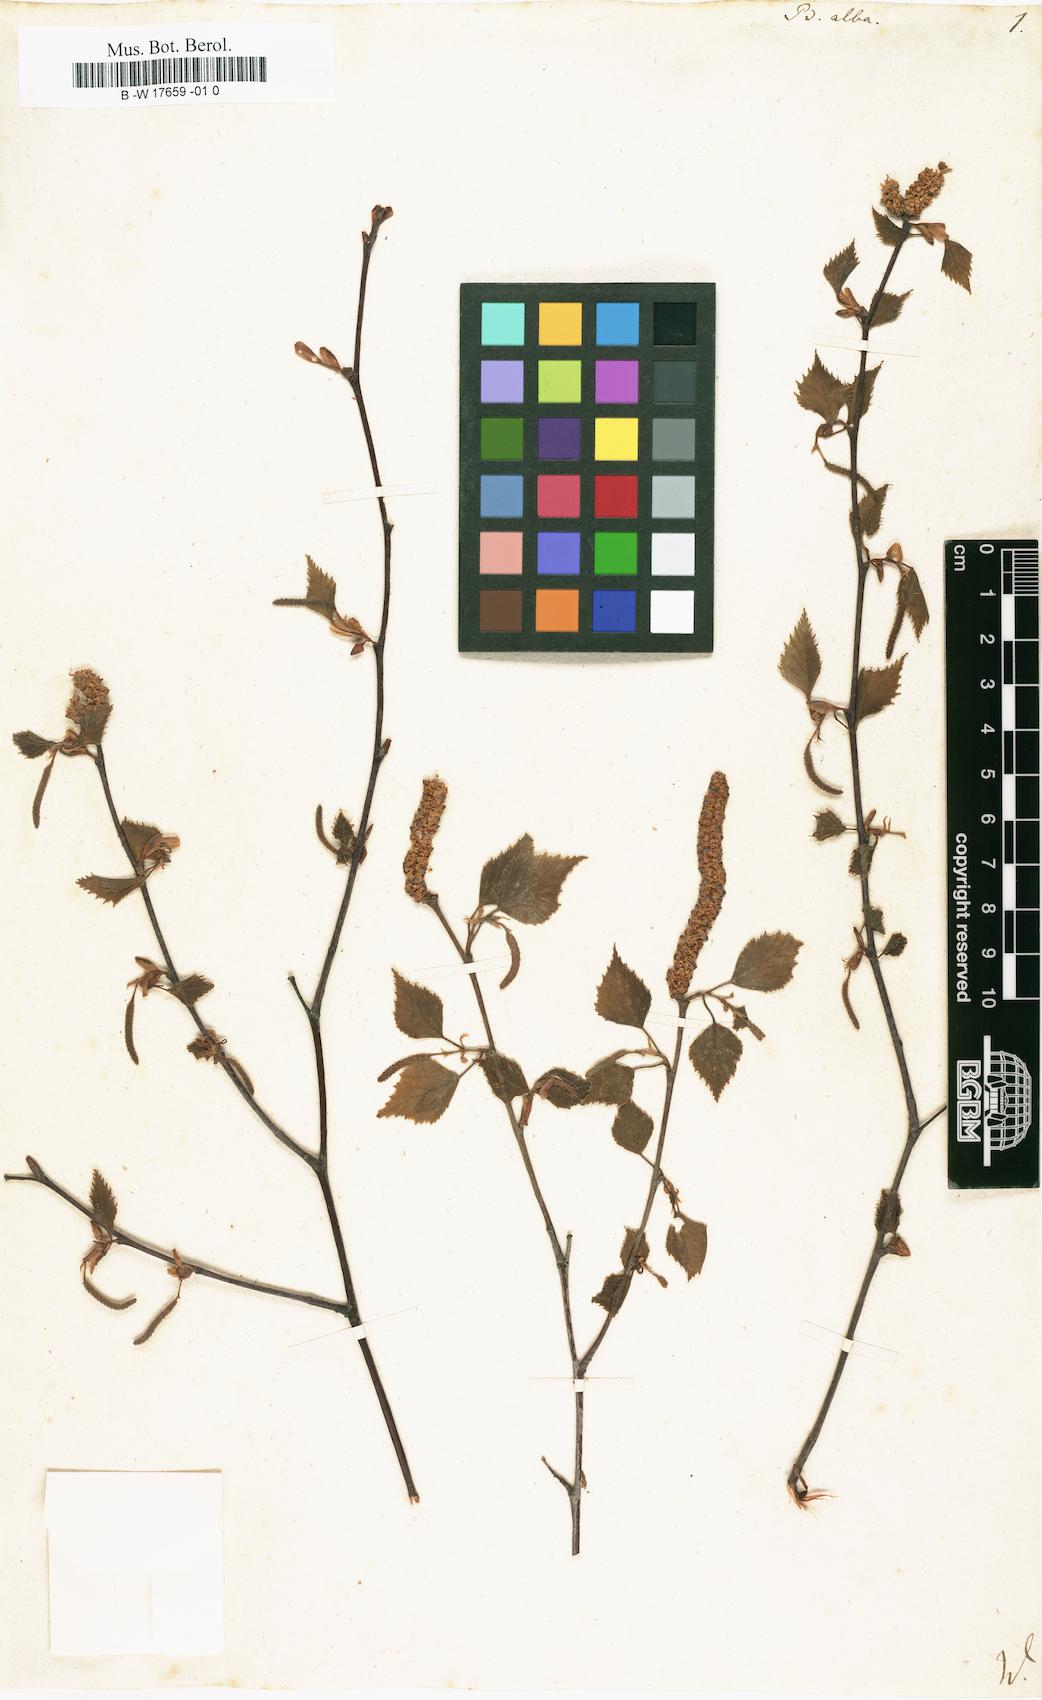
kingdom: Plantae
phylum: Tracheophyta
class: Magnoliopsida
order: Fagales
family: Betulaceae
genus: Betula
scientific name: Betula pubescens
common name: Downy birch
